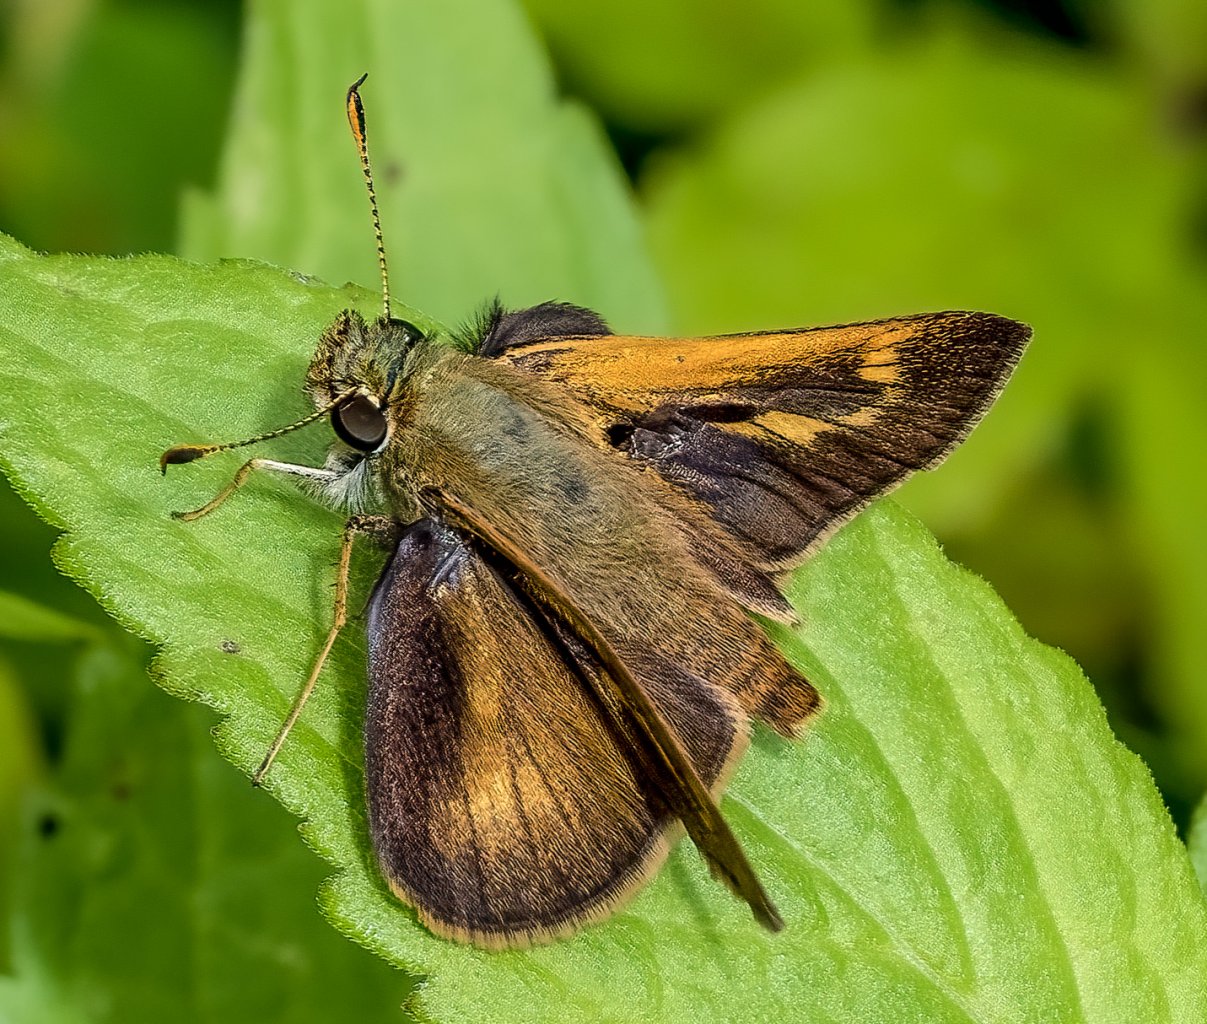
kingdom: Animalia
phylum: Arthropoda
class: Insecta
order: Lepidoptera
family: Hesperiidae
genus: Polites
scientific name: Polites
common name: Crossline Skipper
